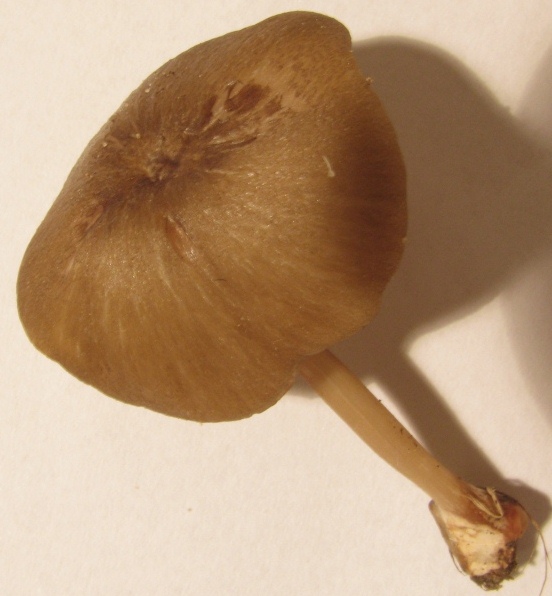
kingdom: Fungi
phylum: Basidiomycota
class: Agaricomycetes
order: Agaricales
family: Entolomataceae
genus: Entoloma
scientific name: Entoloma turci
